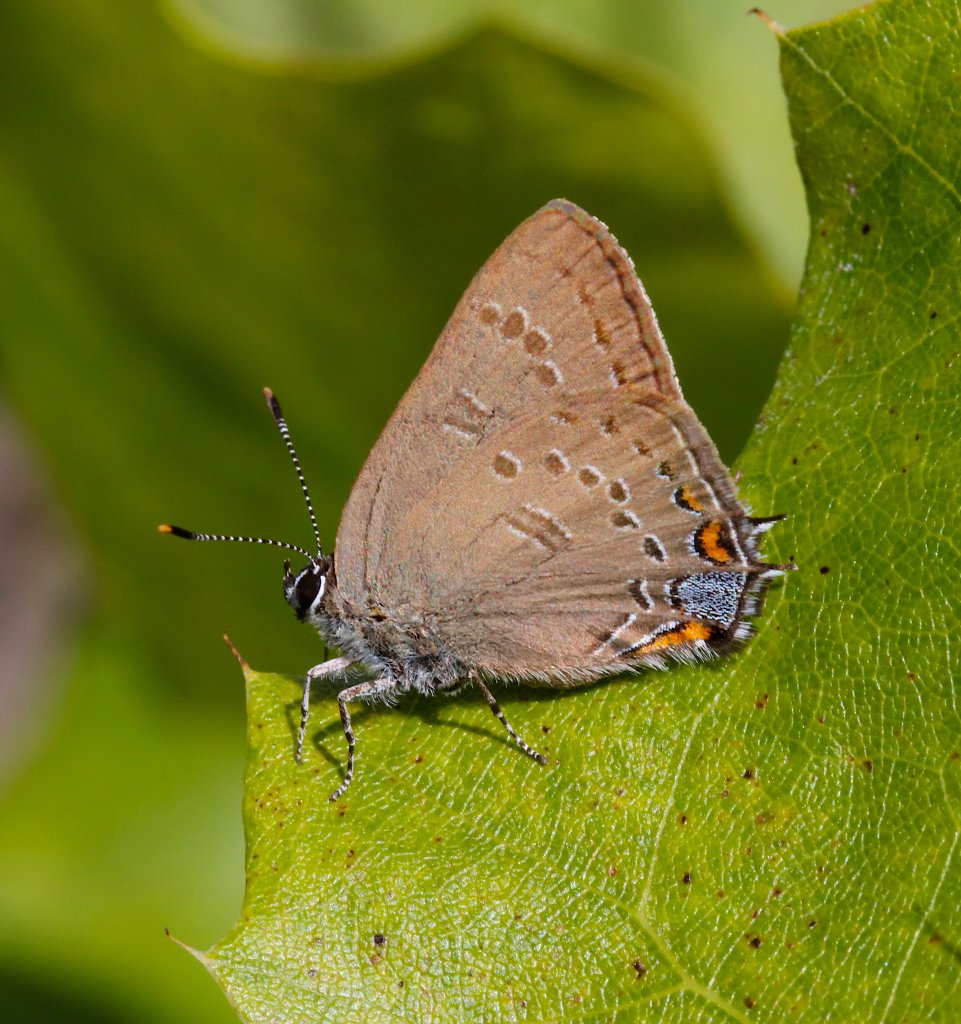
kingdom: Animalia
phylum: Arthropoda
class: Insecta
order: Lepidoptera
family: Lycaenidae
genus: Satyrium
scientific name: Satyrium edwardsii
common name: Edwards' Hairstreak
